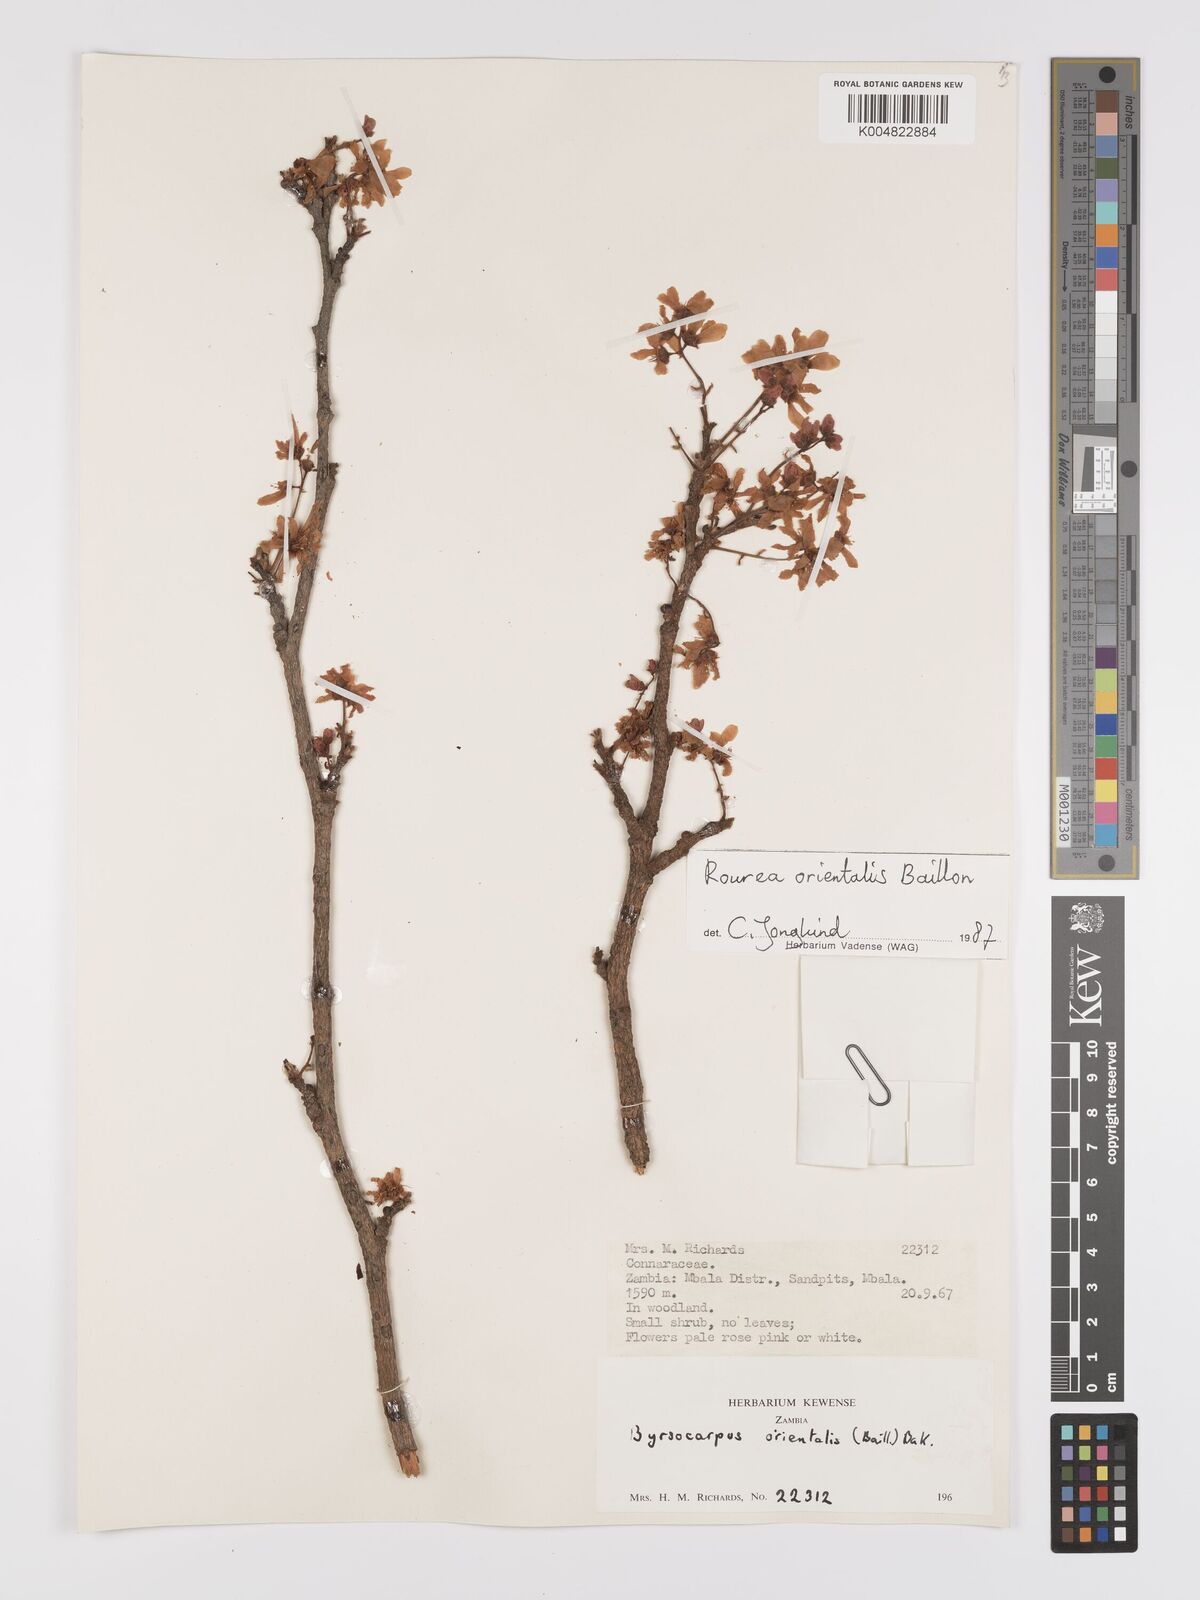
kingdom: Plantae
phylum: Tracheophyta
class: Magnoliopsida
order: Oxalidales
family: Connaraceae
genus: Rourea
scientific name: Rourea orientalis
